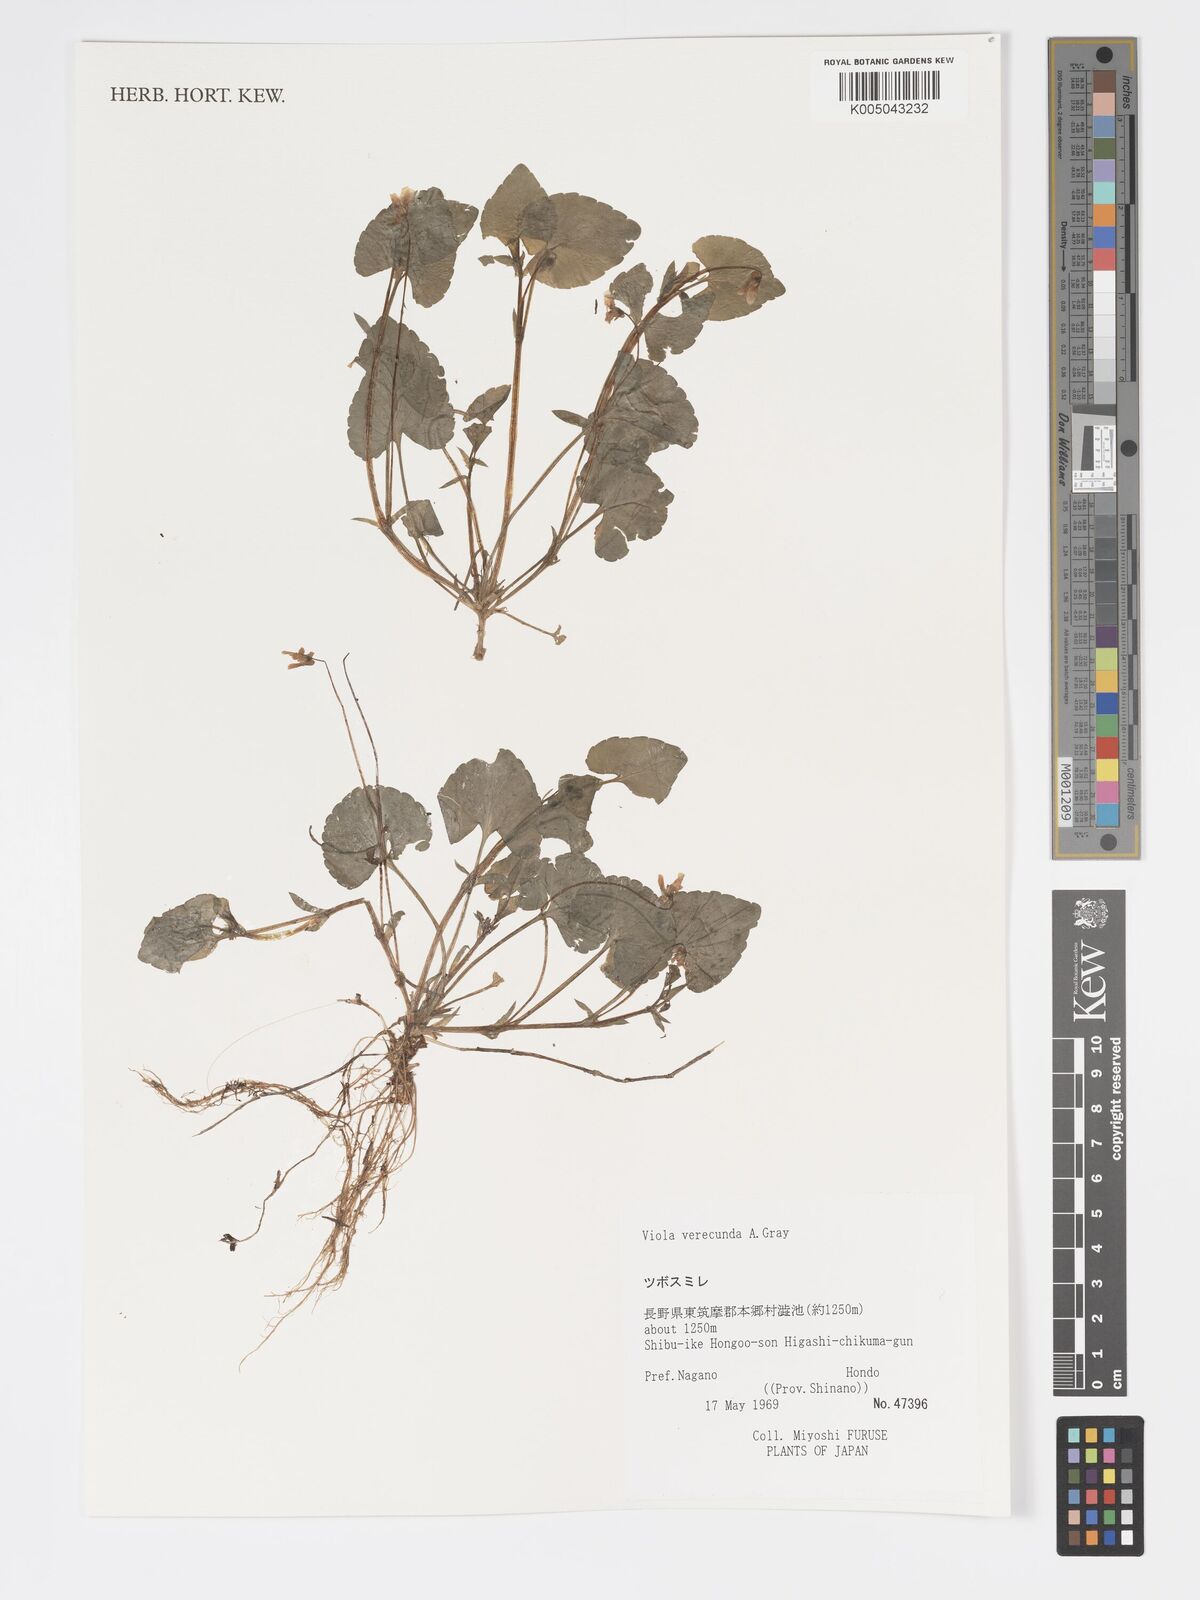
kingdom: Plantae
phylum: Tracheophyta
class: Magnoliopsida
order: Malpighiales
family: Violaceae
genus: Viola
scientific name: Viola hamiltoniana
